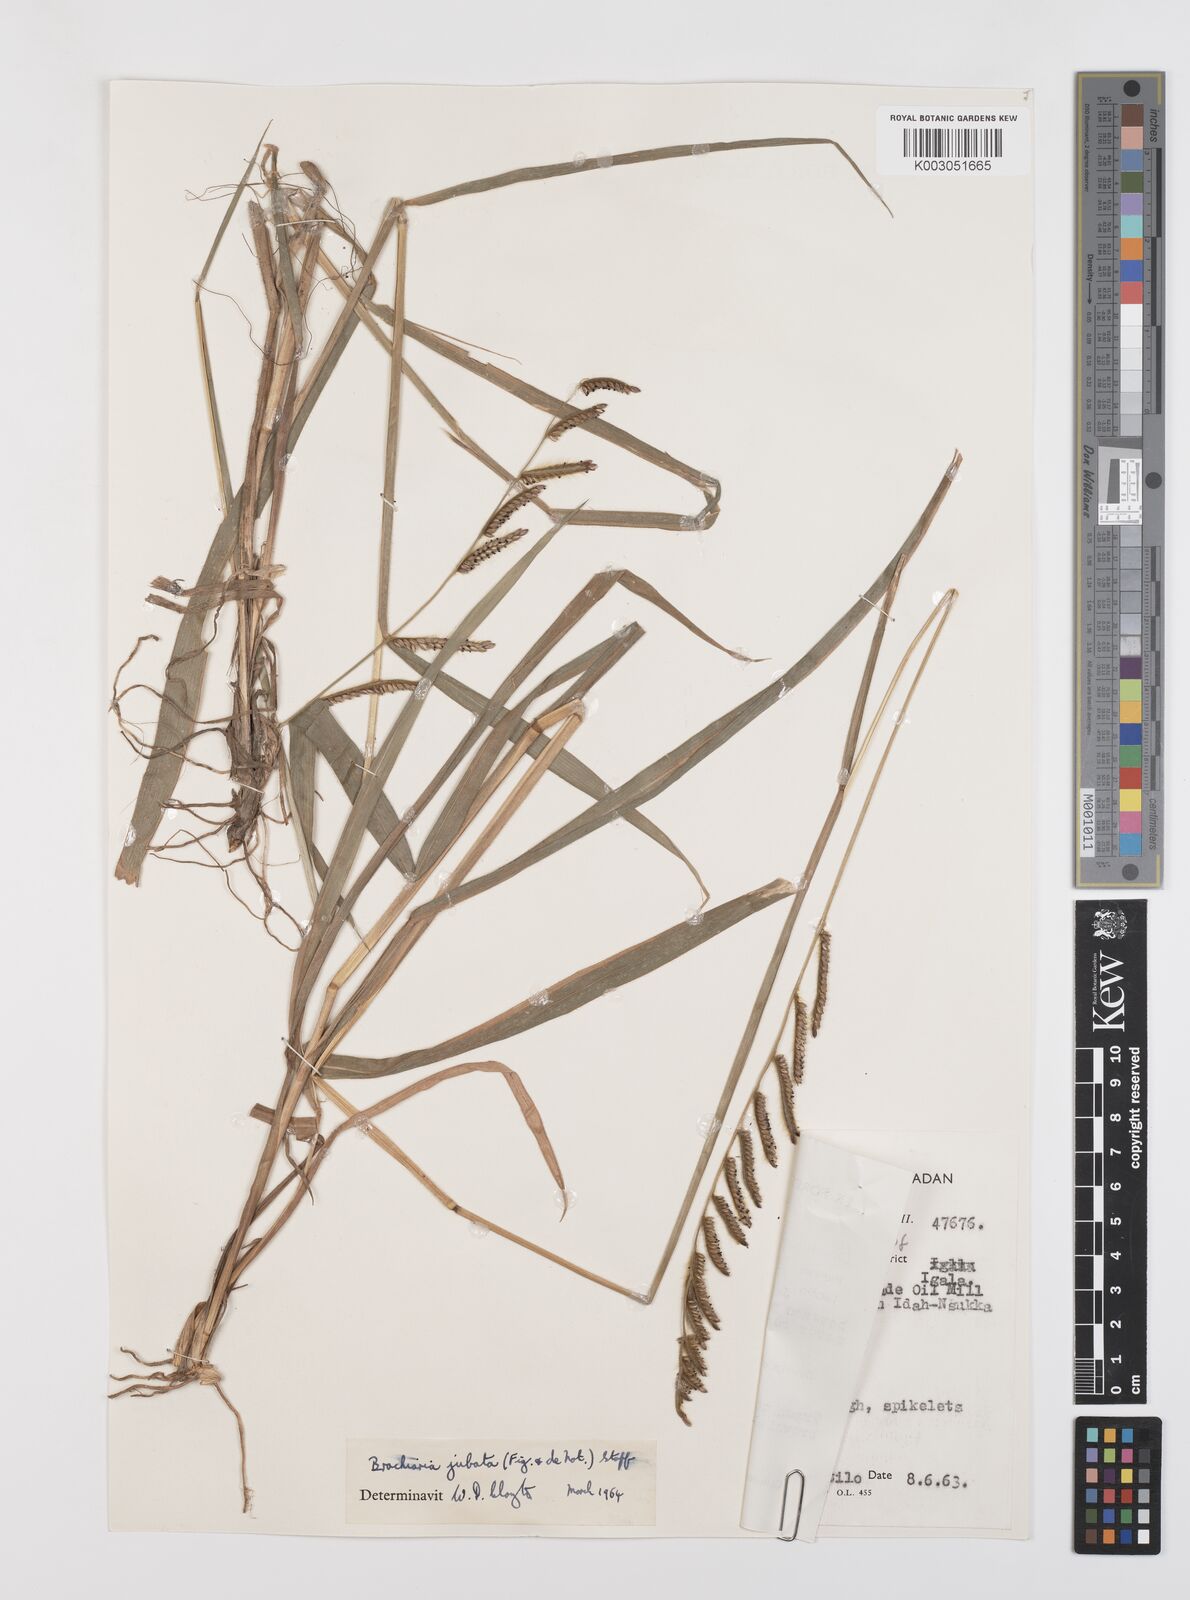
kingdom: Plantae
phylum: Tracheophyta
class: Liliopsida
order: Poales
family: Poaceae
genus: Urochloa
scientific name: Urochloa jubata
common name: Buffalograss
